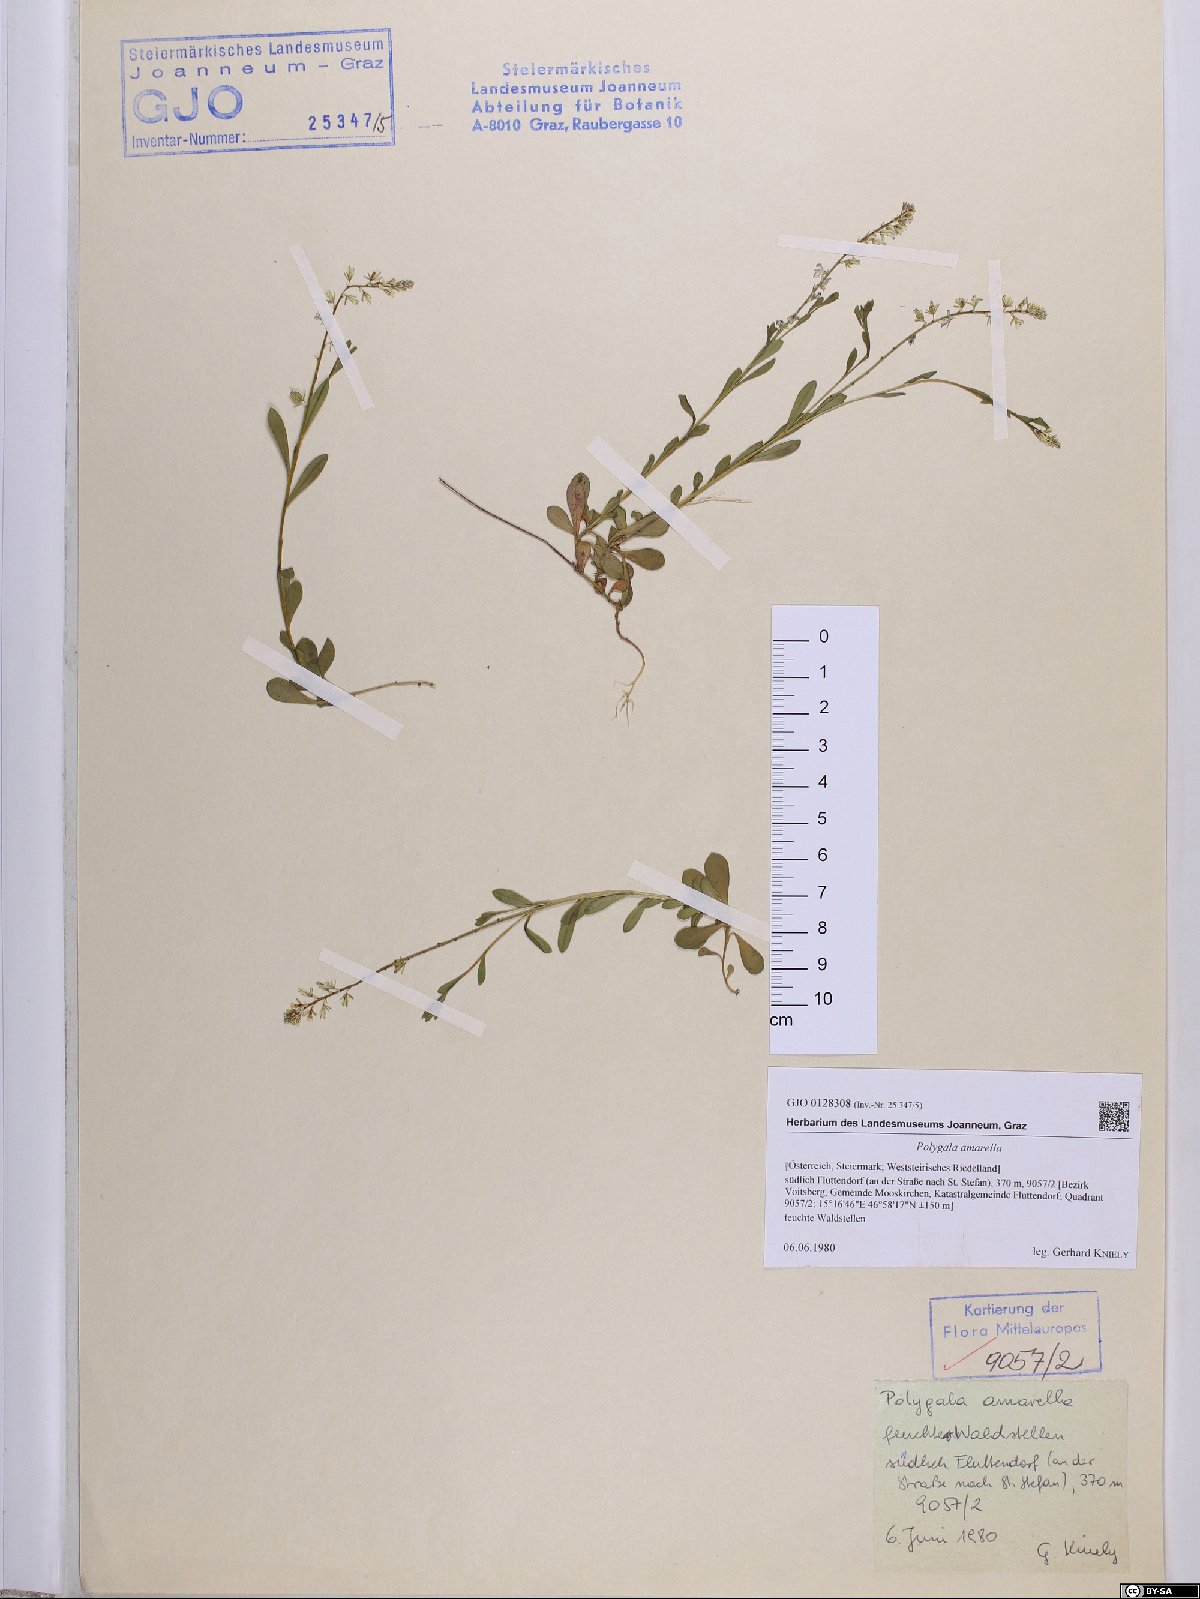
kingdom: Plantae
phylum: Tracheophyta
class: Magnoliopsida
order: Fabales
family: Polygalaceae
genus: Polygala
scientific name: Polygala amarella
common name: Dwarf milkwort
